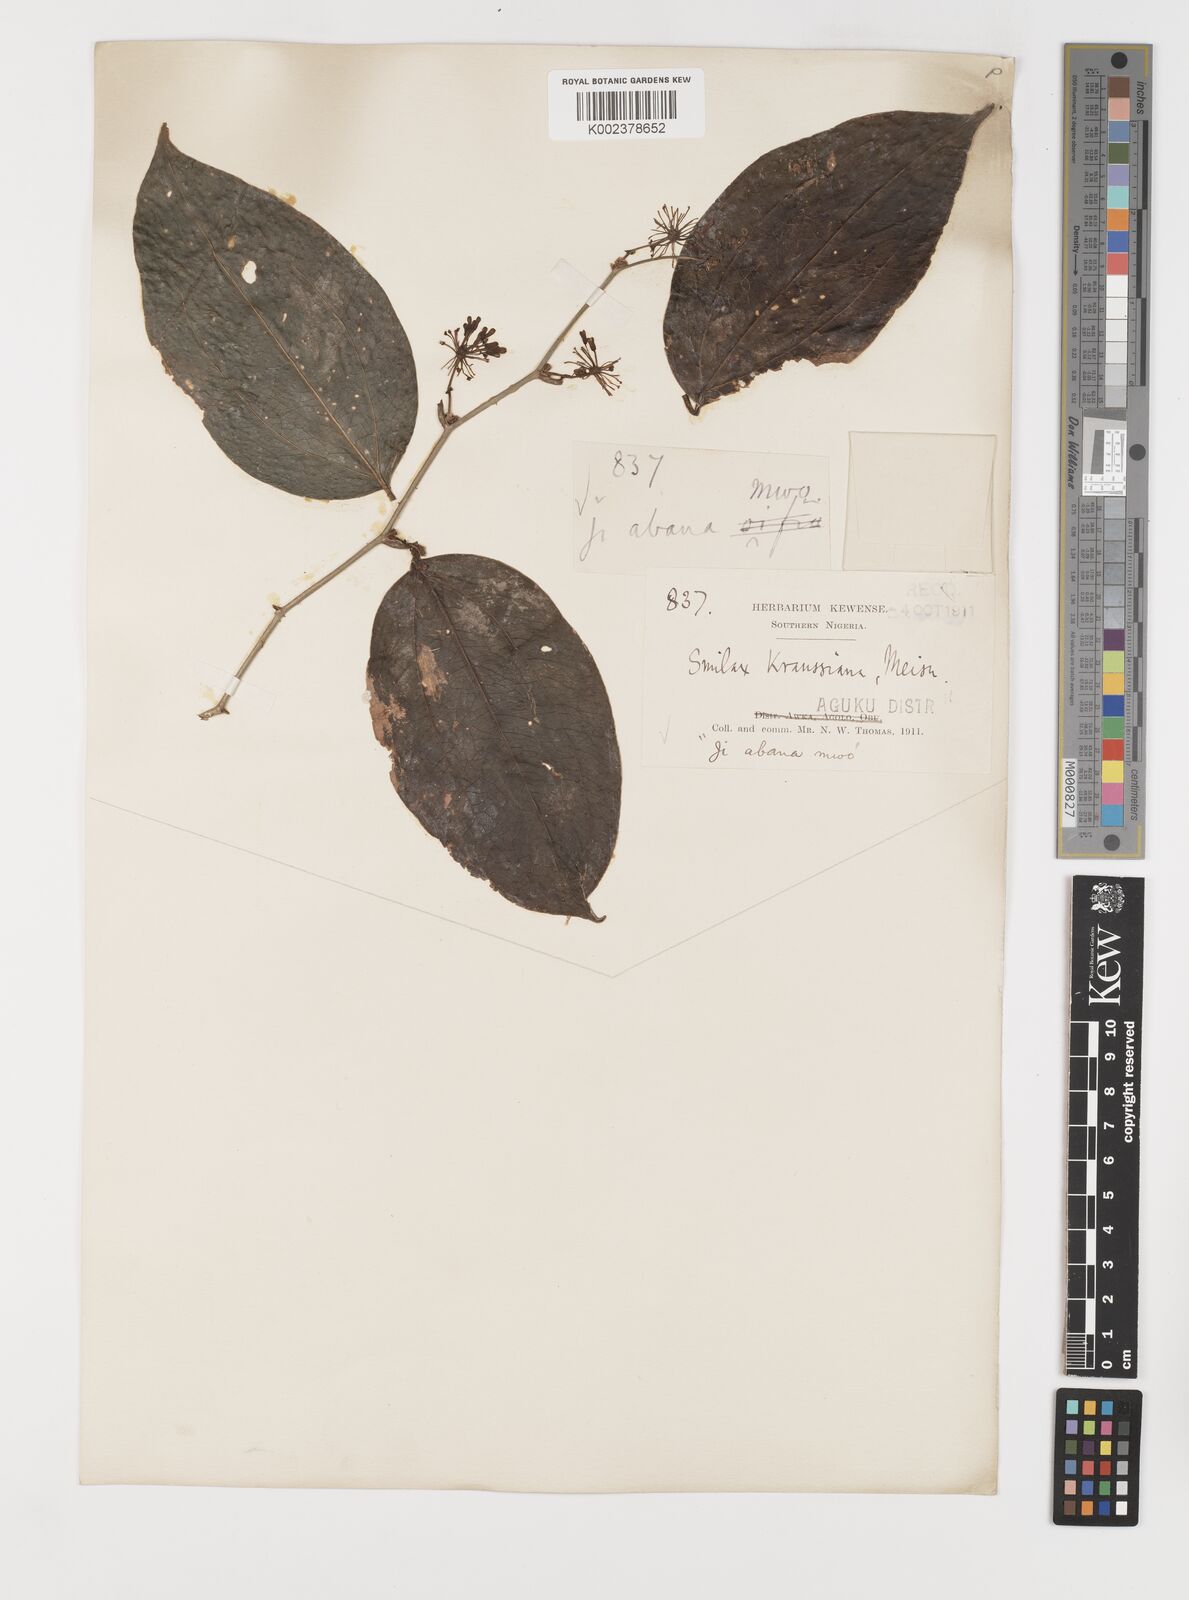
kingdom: Plantae
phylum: Tracheophyta
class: Liliopsida
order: Liliales
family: Smilacaceae
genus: Smilax
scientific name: Smilax anceps
